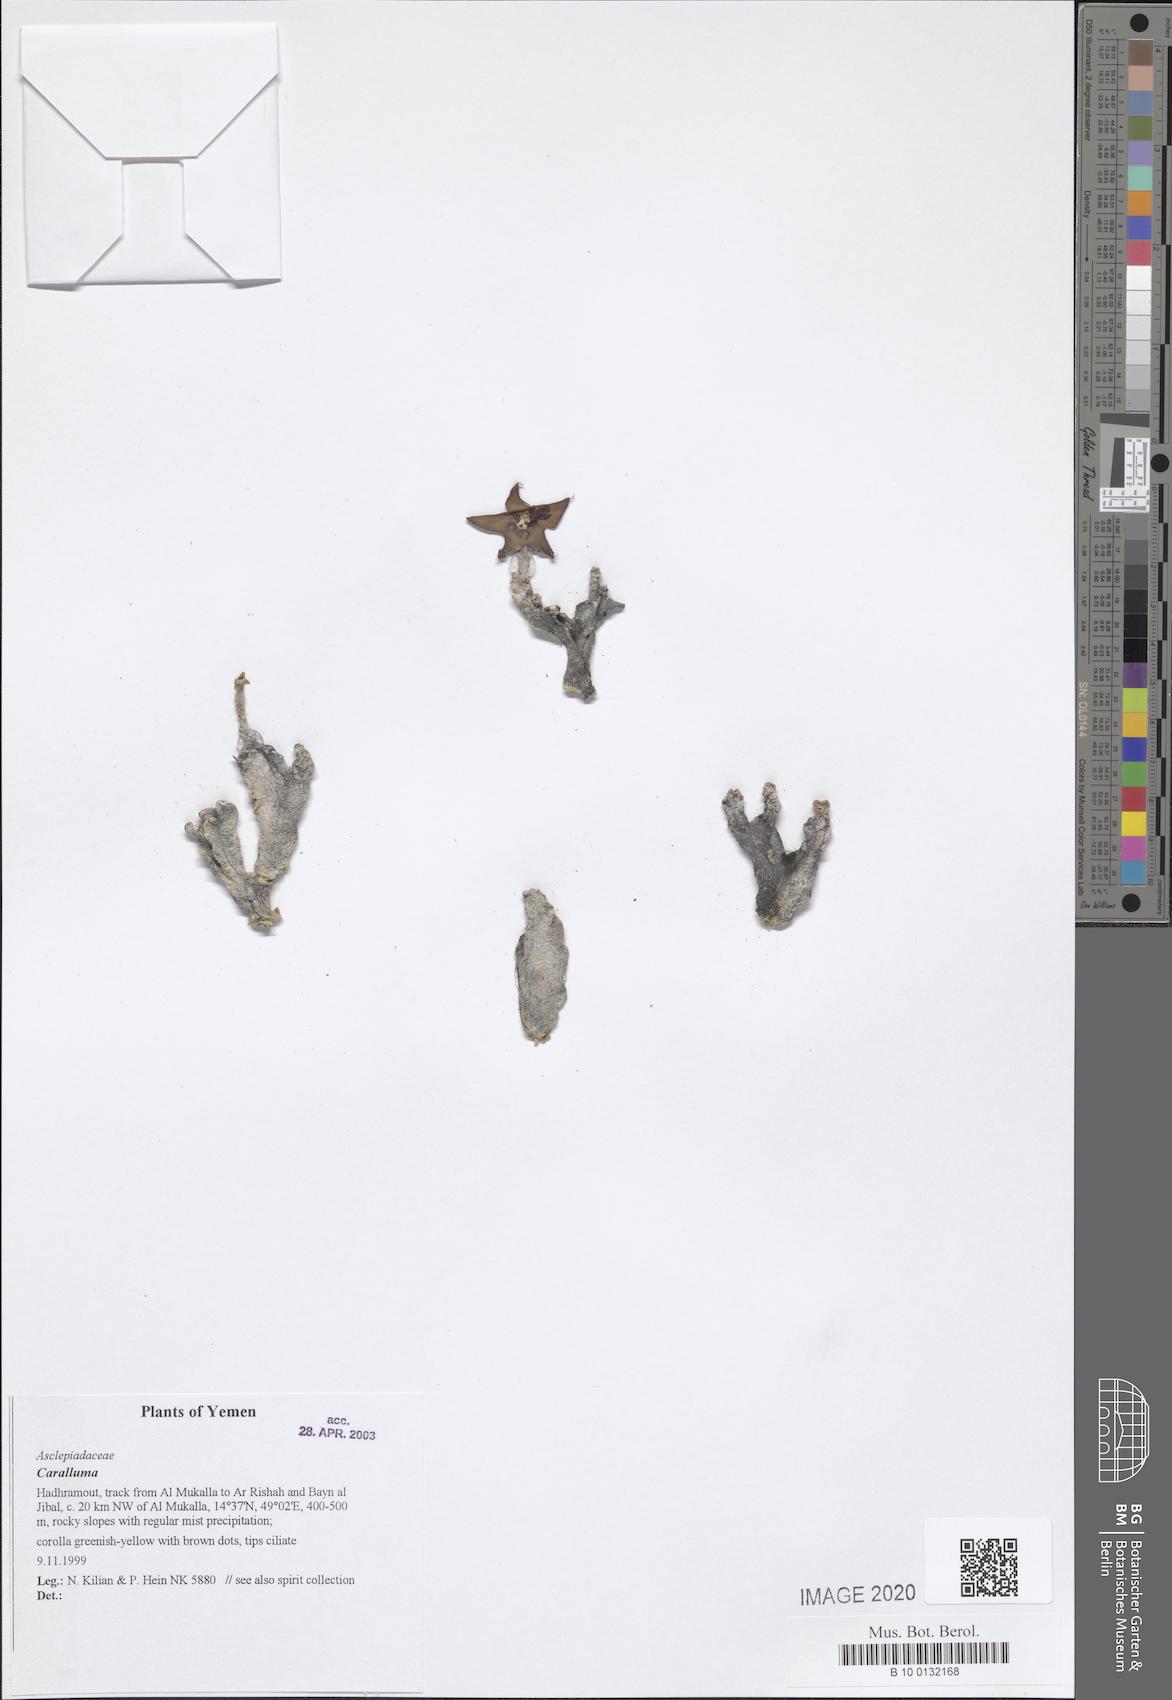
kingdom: Plantae
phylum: Tracheophyta
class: Magnoliopsida
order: Gentianales
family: Apocynaceae
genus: Ceropegia
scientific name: Ceropegia dolichocarpa
